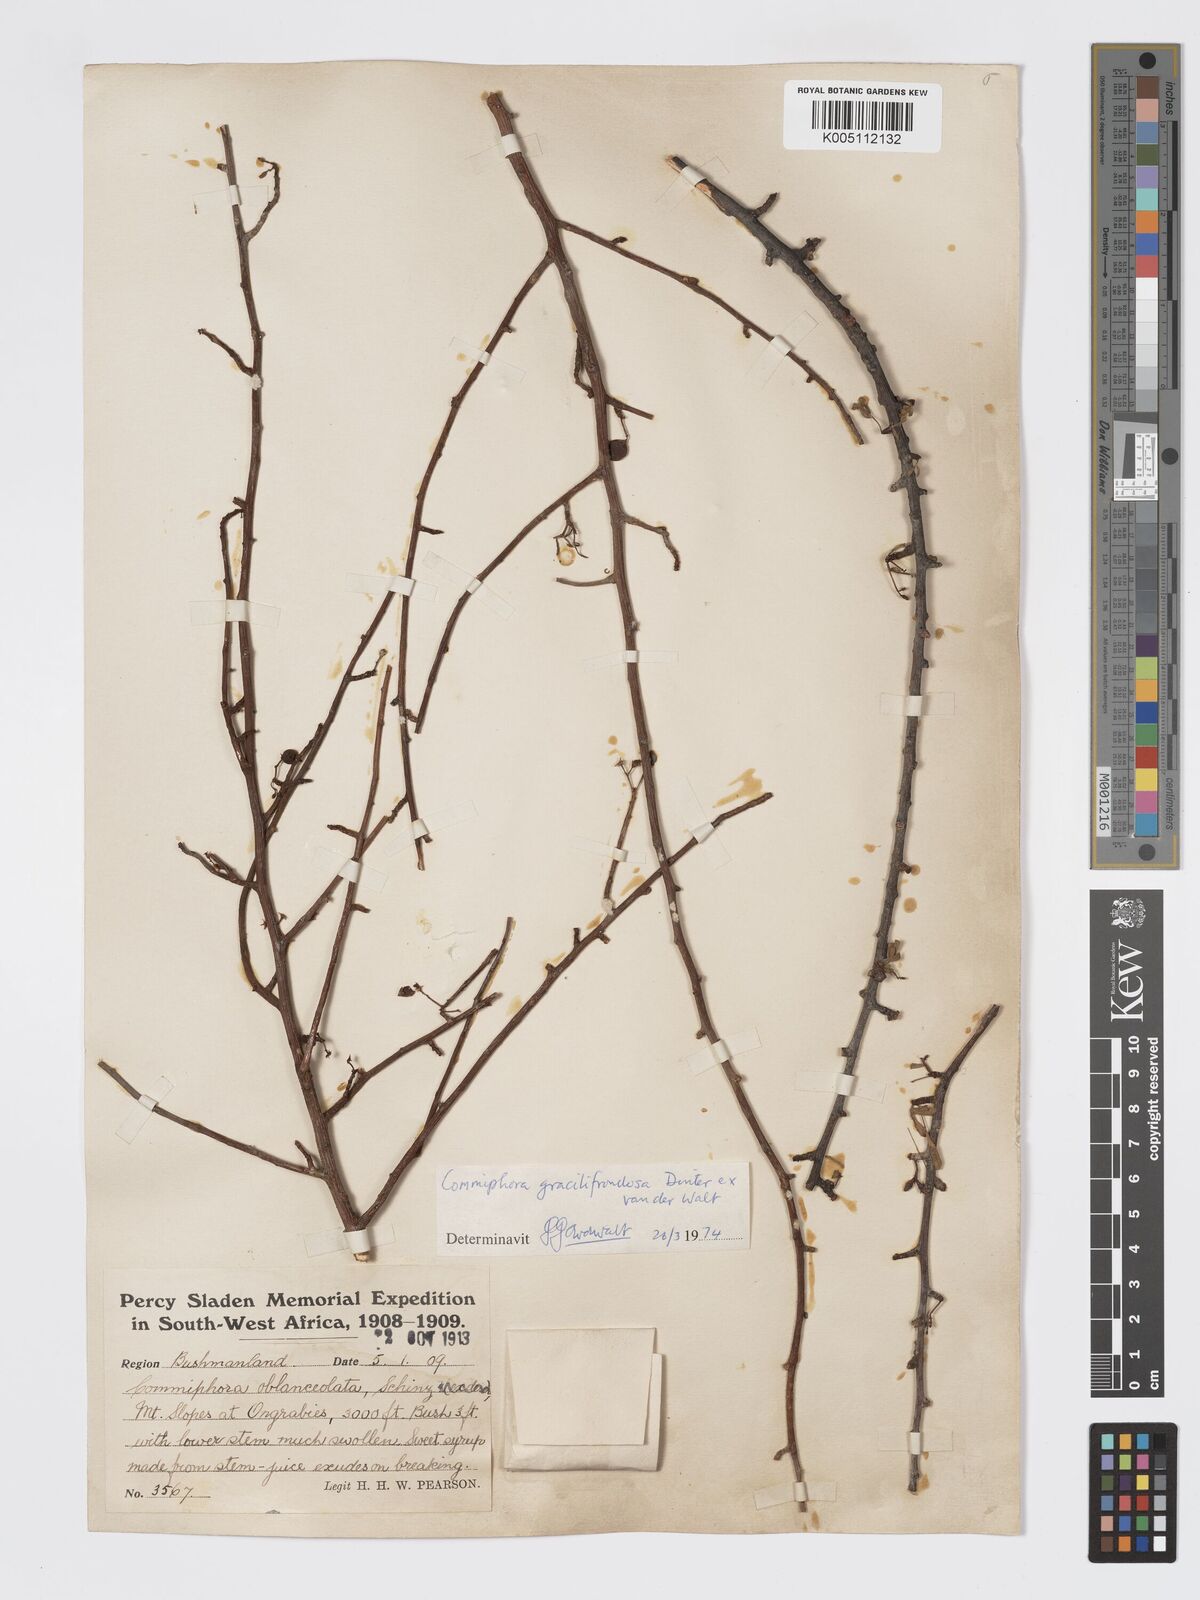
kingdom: Plantae
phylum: Tracheophyta
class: Magnoliopsida
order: Sapindales
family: Burseraceae
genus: Commiphora
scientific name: Commiphora gracilifrondosa
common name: Karee-leaved commiphora
